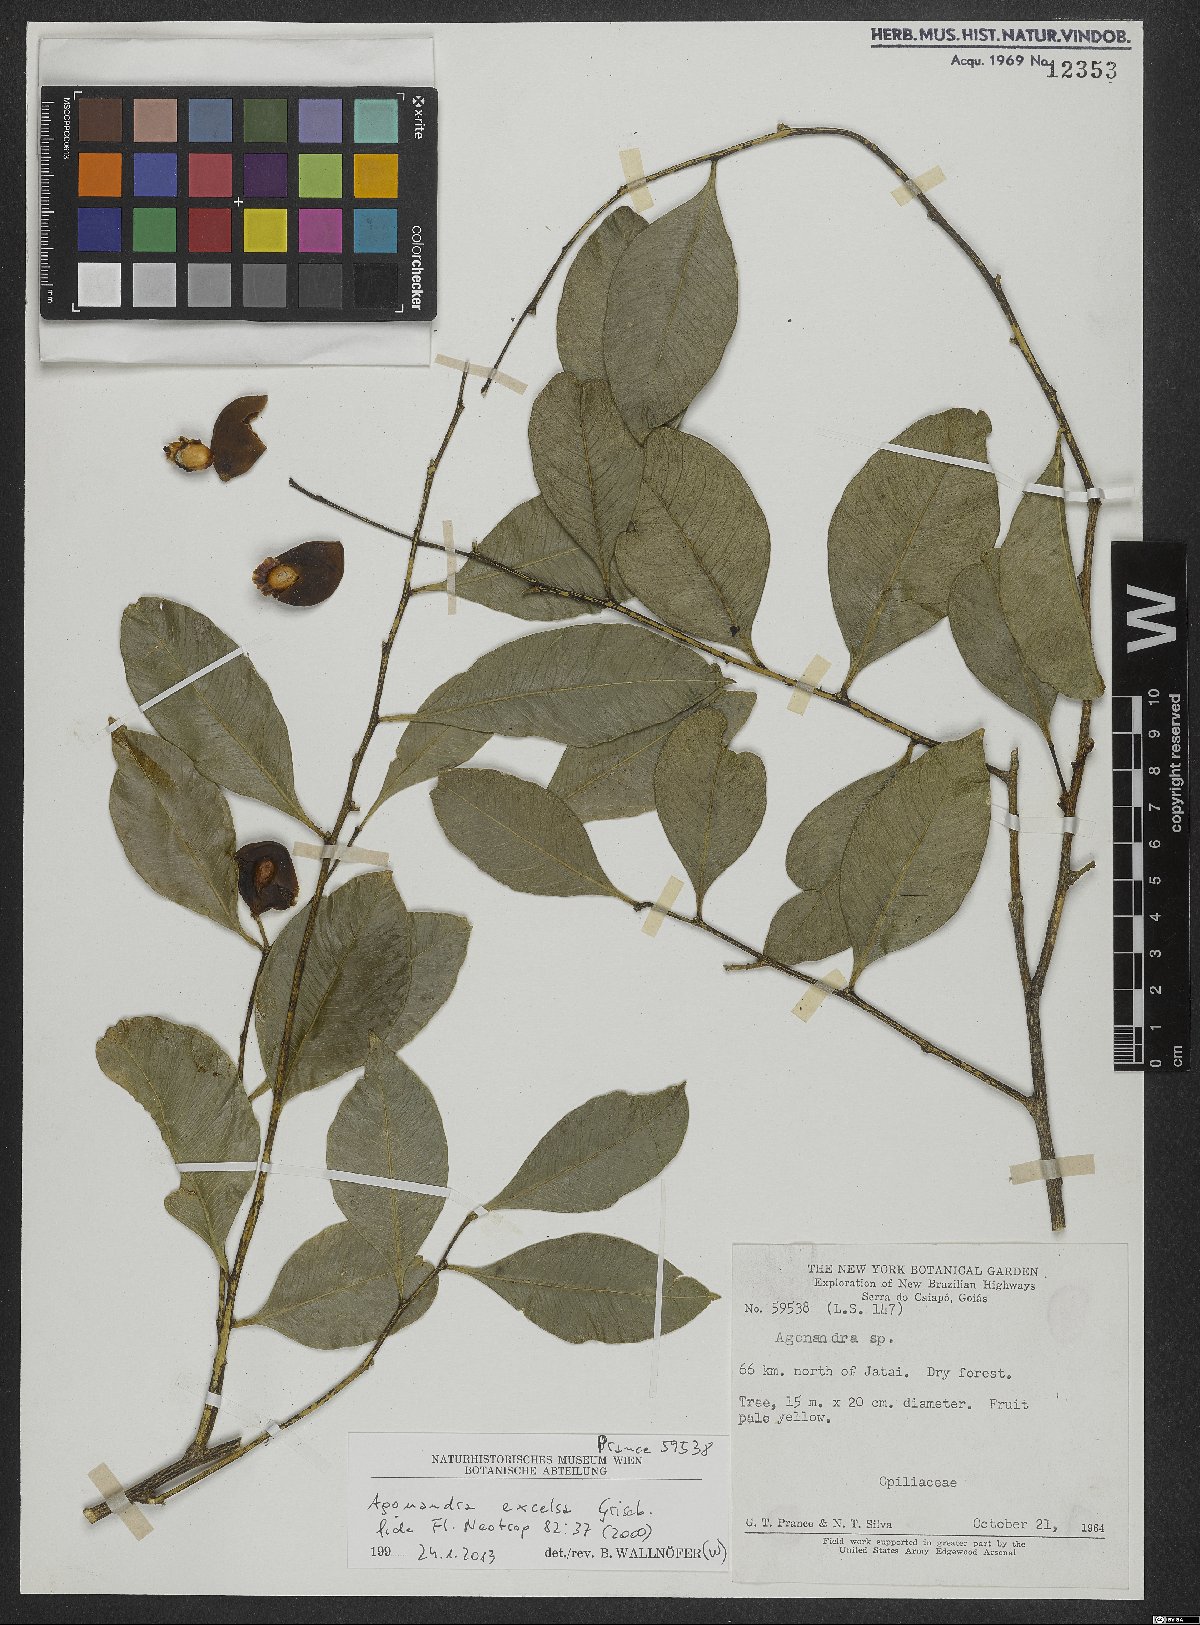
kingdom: Plantae
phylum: Tracheophyta
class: Magnoliopsida
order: Santalales
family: Opiliaceae
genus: Agonandra
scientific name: Agonandra excelsa
